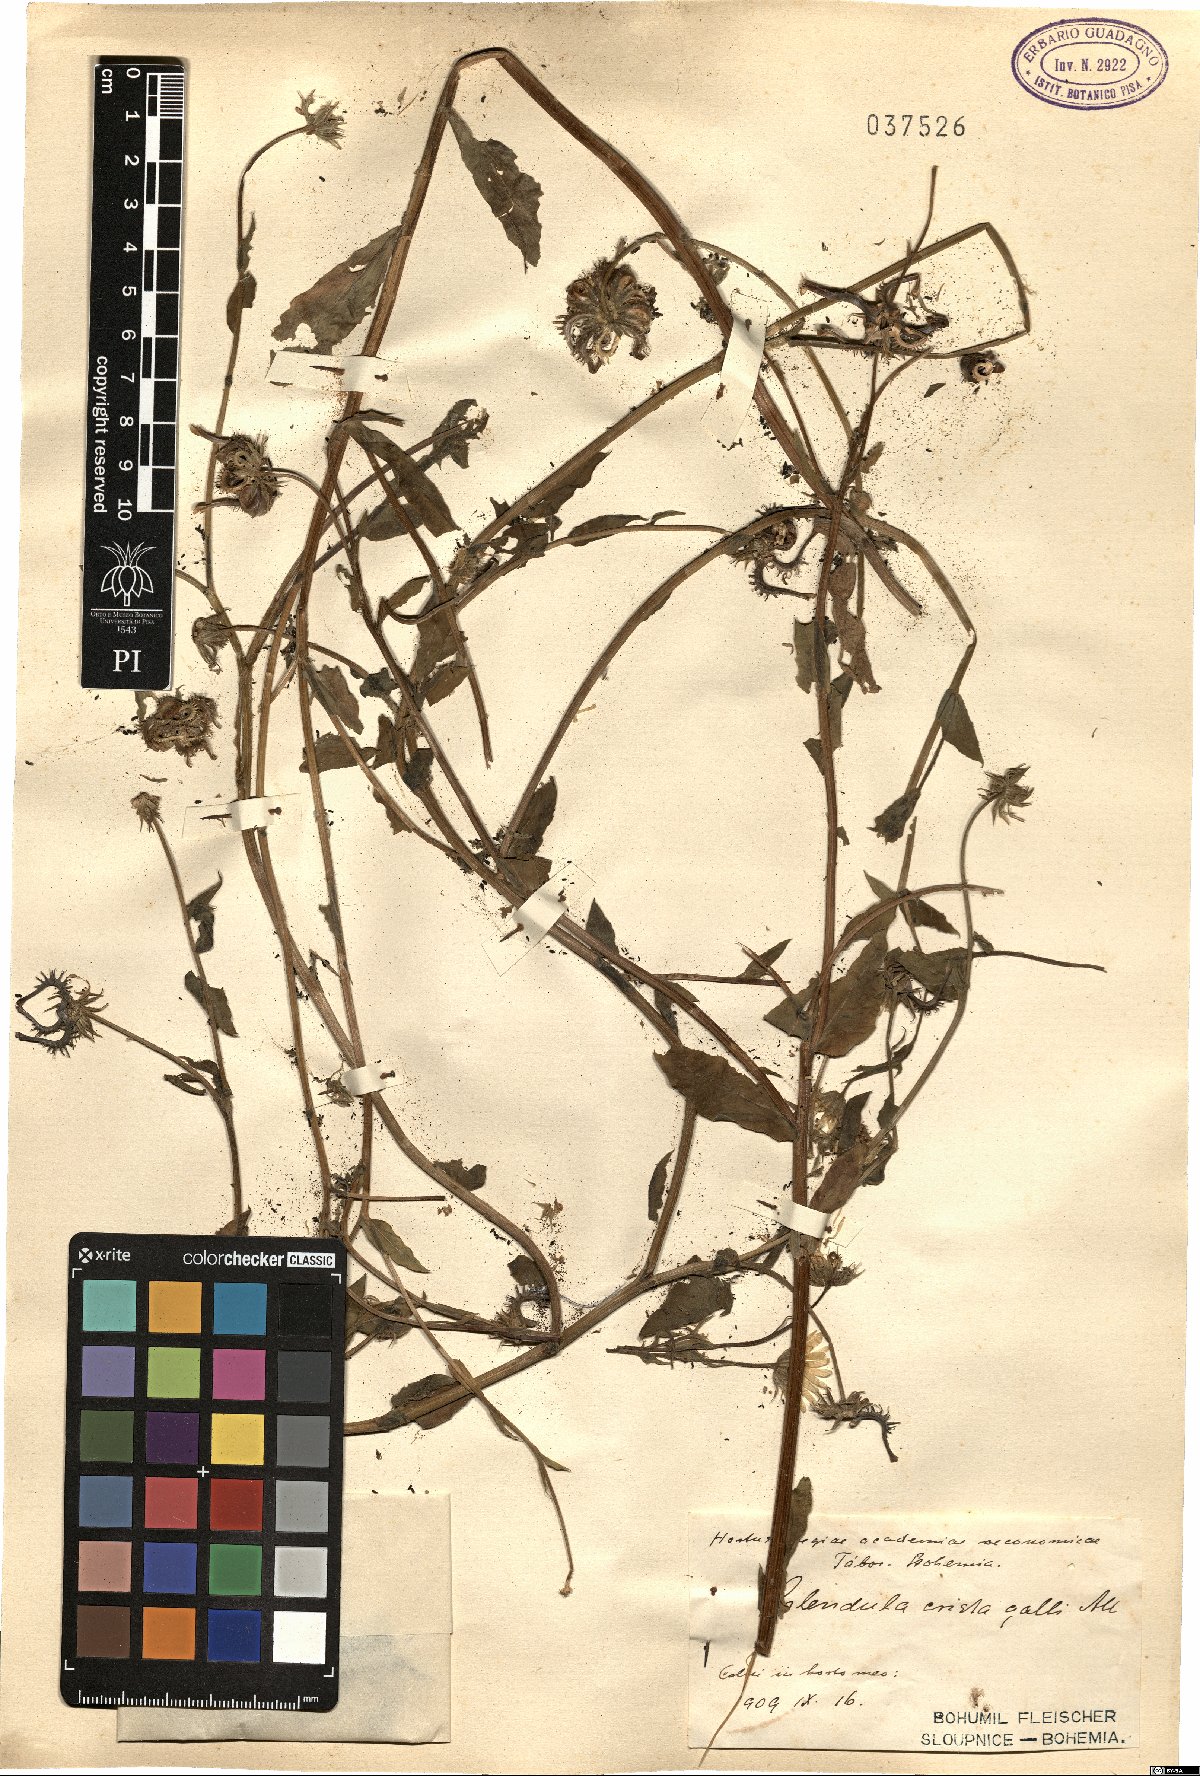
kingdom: Plantae
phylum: Tracheophyta
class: Magnoliopsida
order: Asterales
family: Asteraceae
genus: Calendula
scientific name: Calendula arvensis
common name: Field marigold
